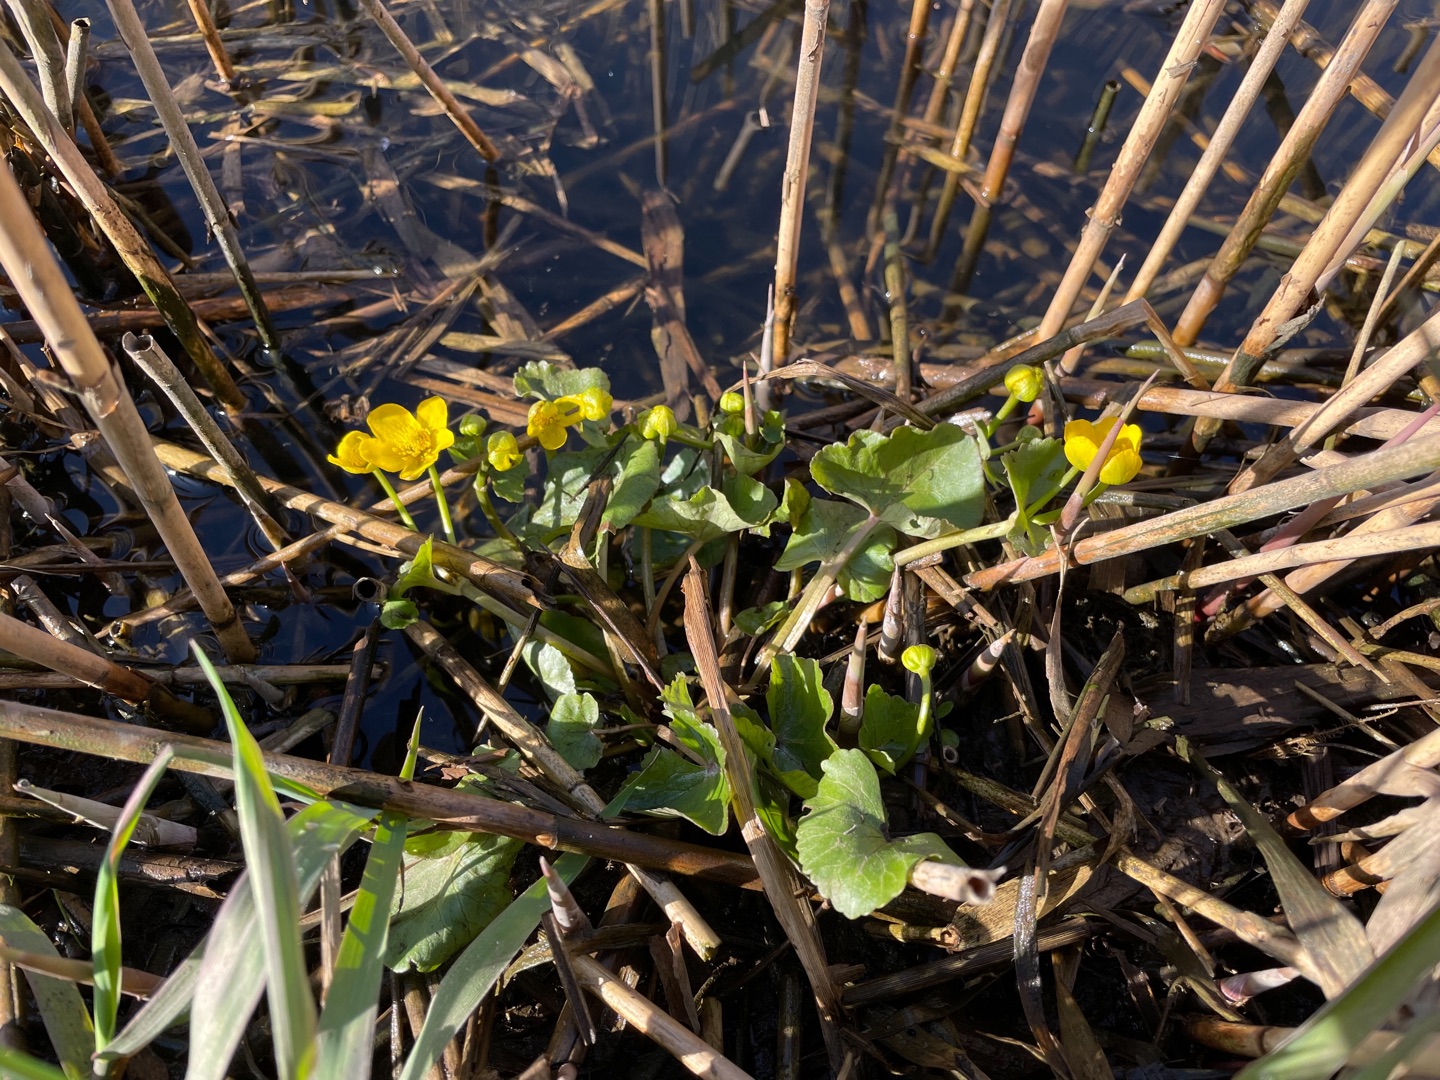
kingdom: Plantae
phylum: Tracheophyta
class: Magnoliopsida
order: Ranunculales
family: Ranunculaceae
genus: Caltha
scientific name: Caltha palustris
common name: Eng-kabbeleje
